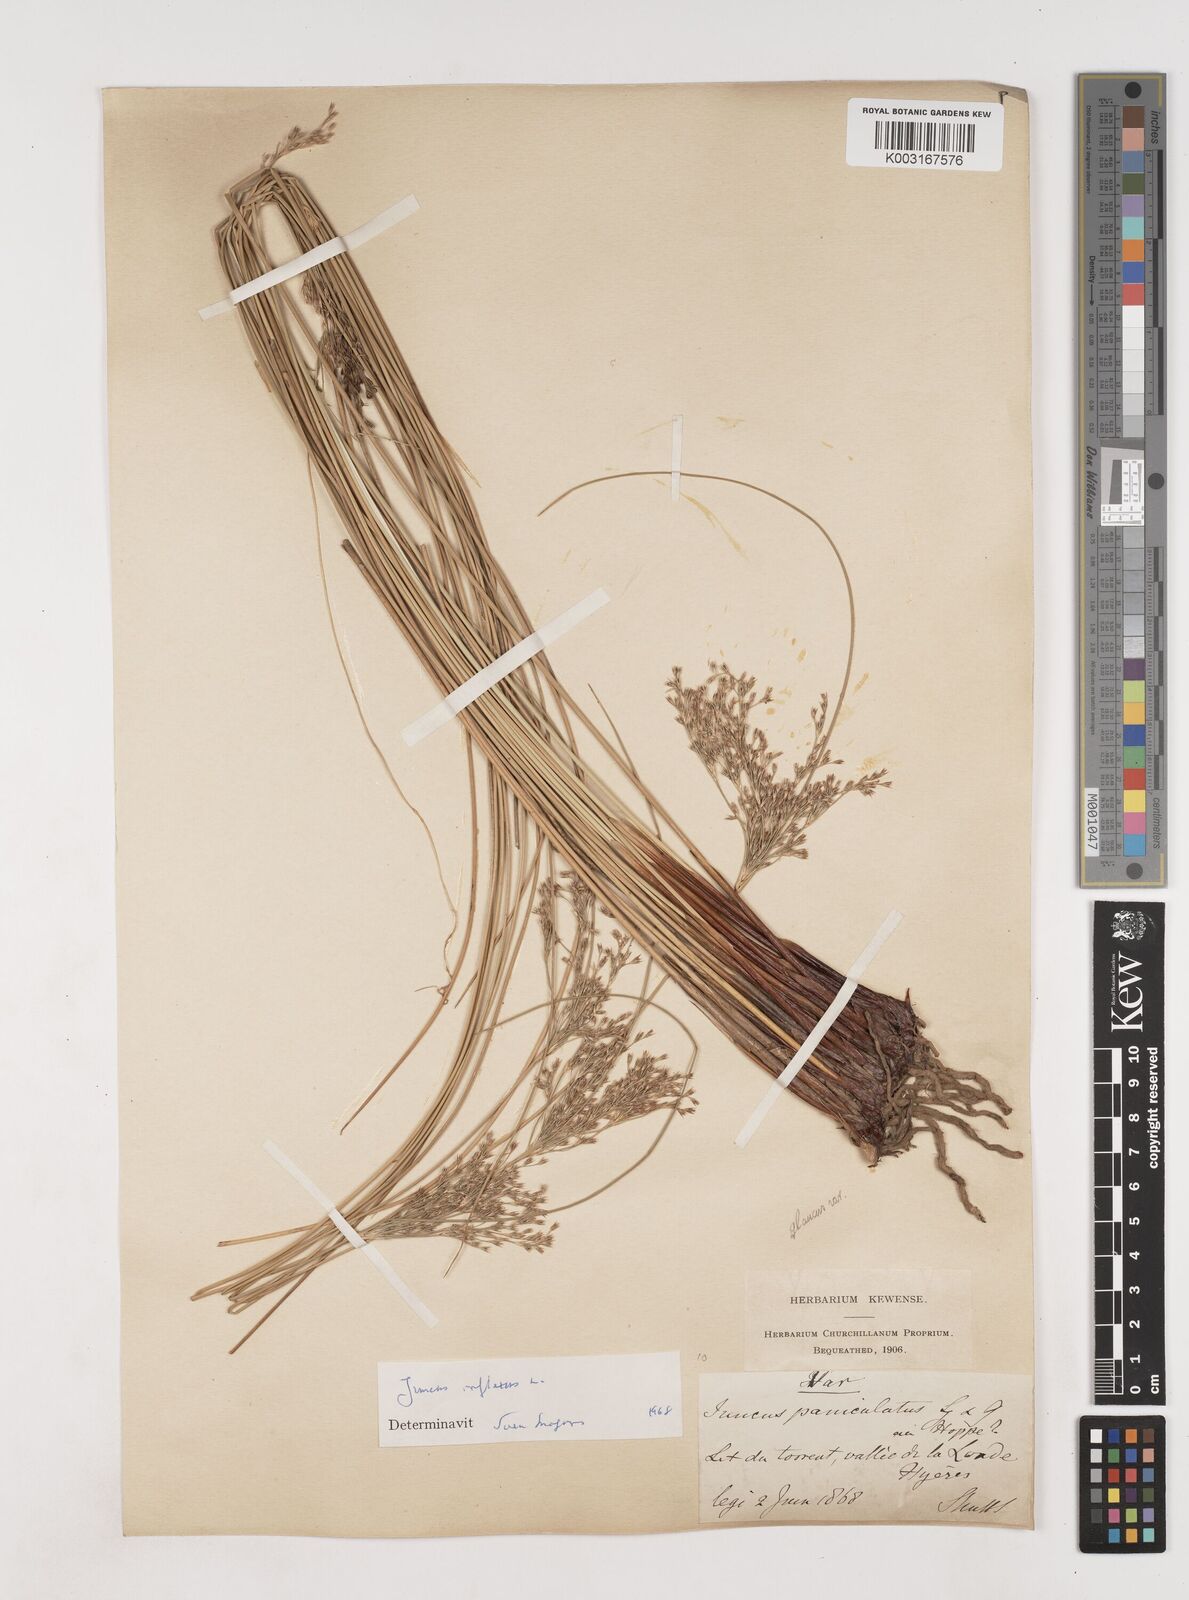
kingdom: Plantae
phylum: Tracheophyta
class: Liliopsida
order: Poales
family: Juncaceae
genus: Juncus
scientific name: Juncus inflexus
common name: Hard rush
